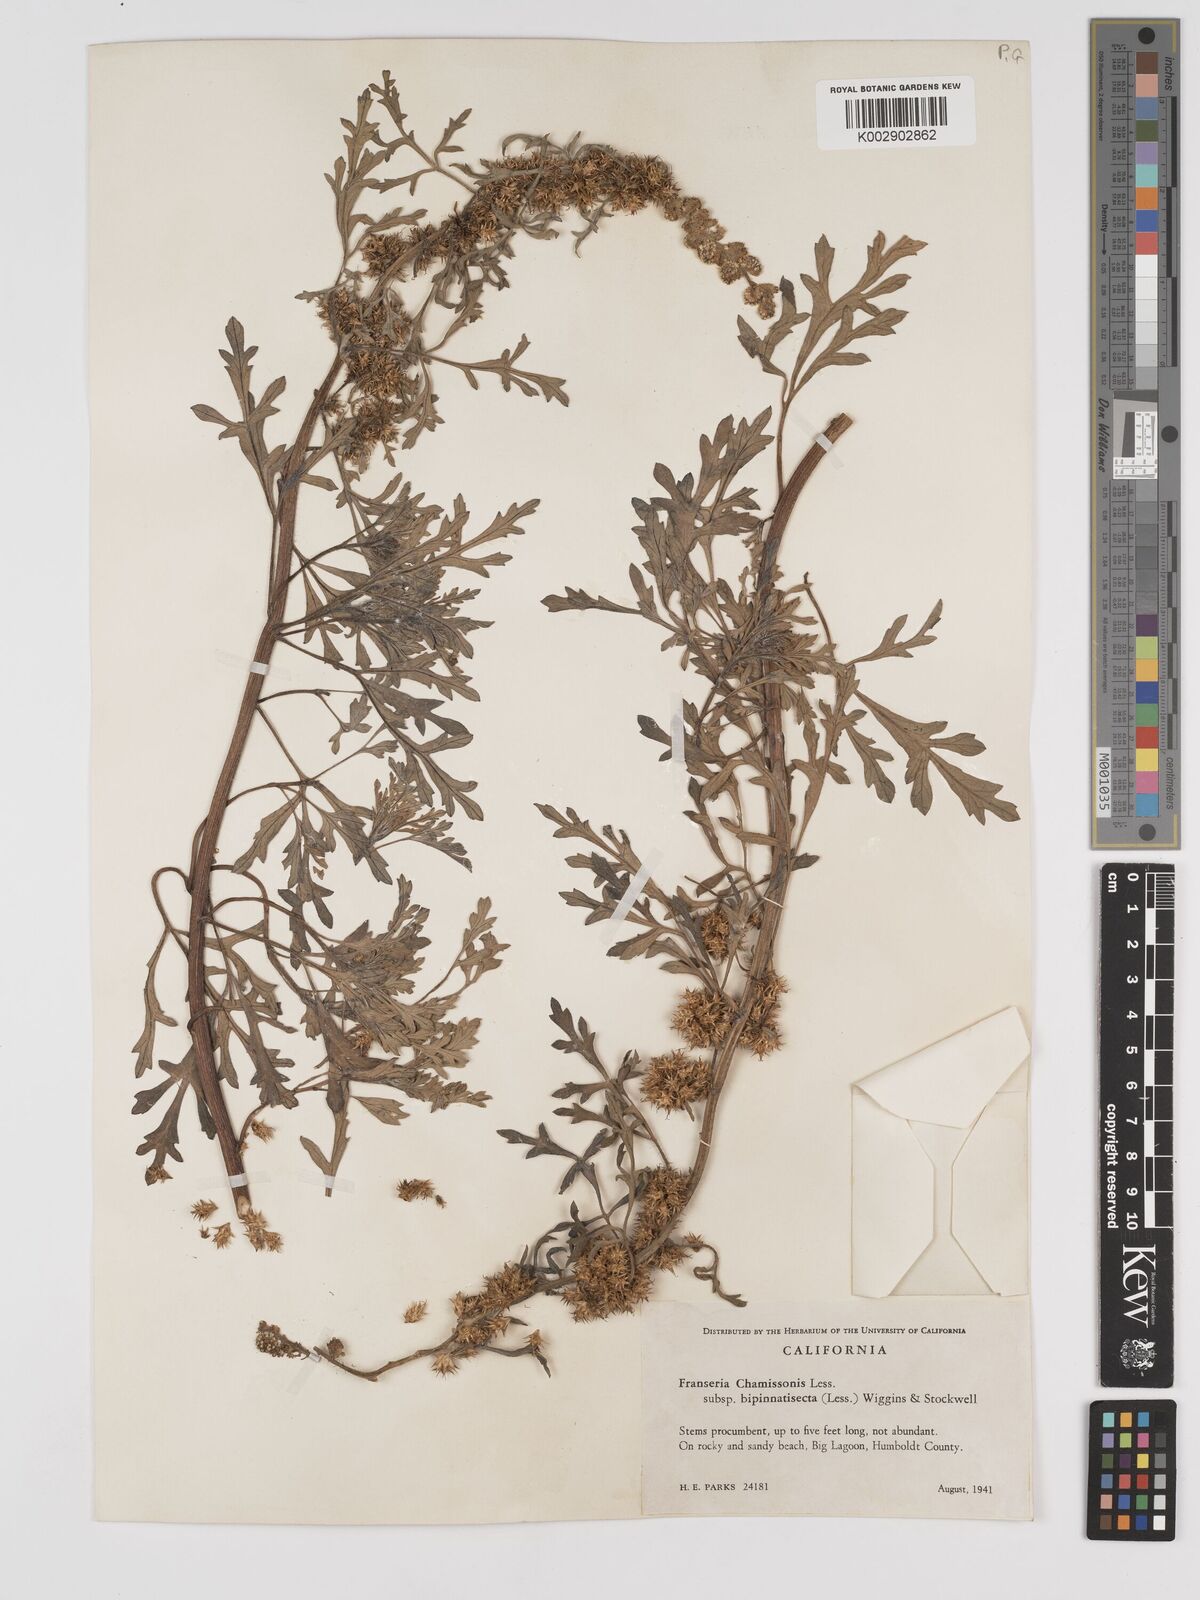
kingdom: Plantae
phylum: Tracheophyta
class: Magnoliopsida
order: Asterales
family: Asteraceae
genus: Ambrosia
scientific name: Ambrosia chamissonis
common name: Beachbur
